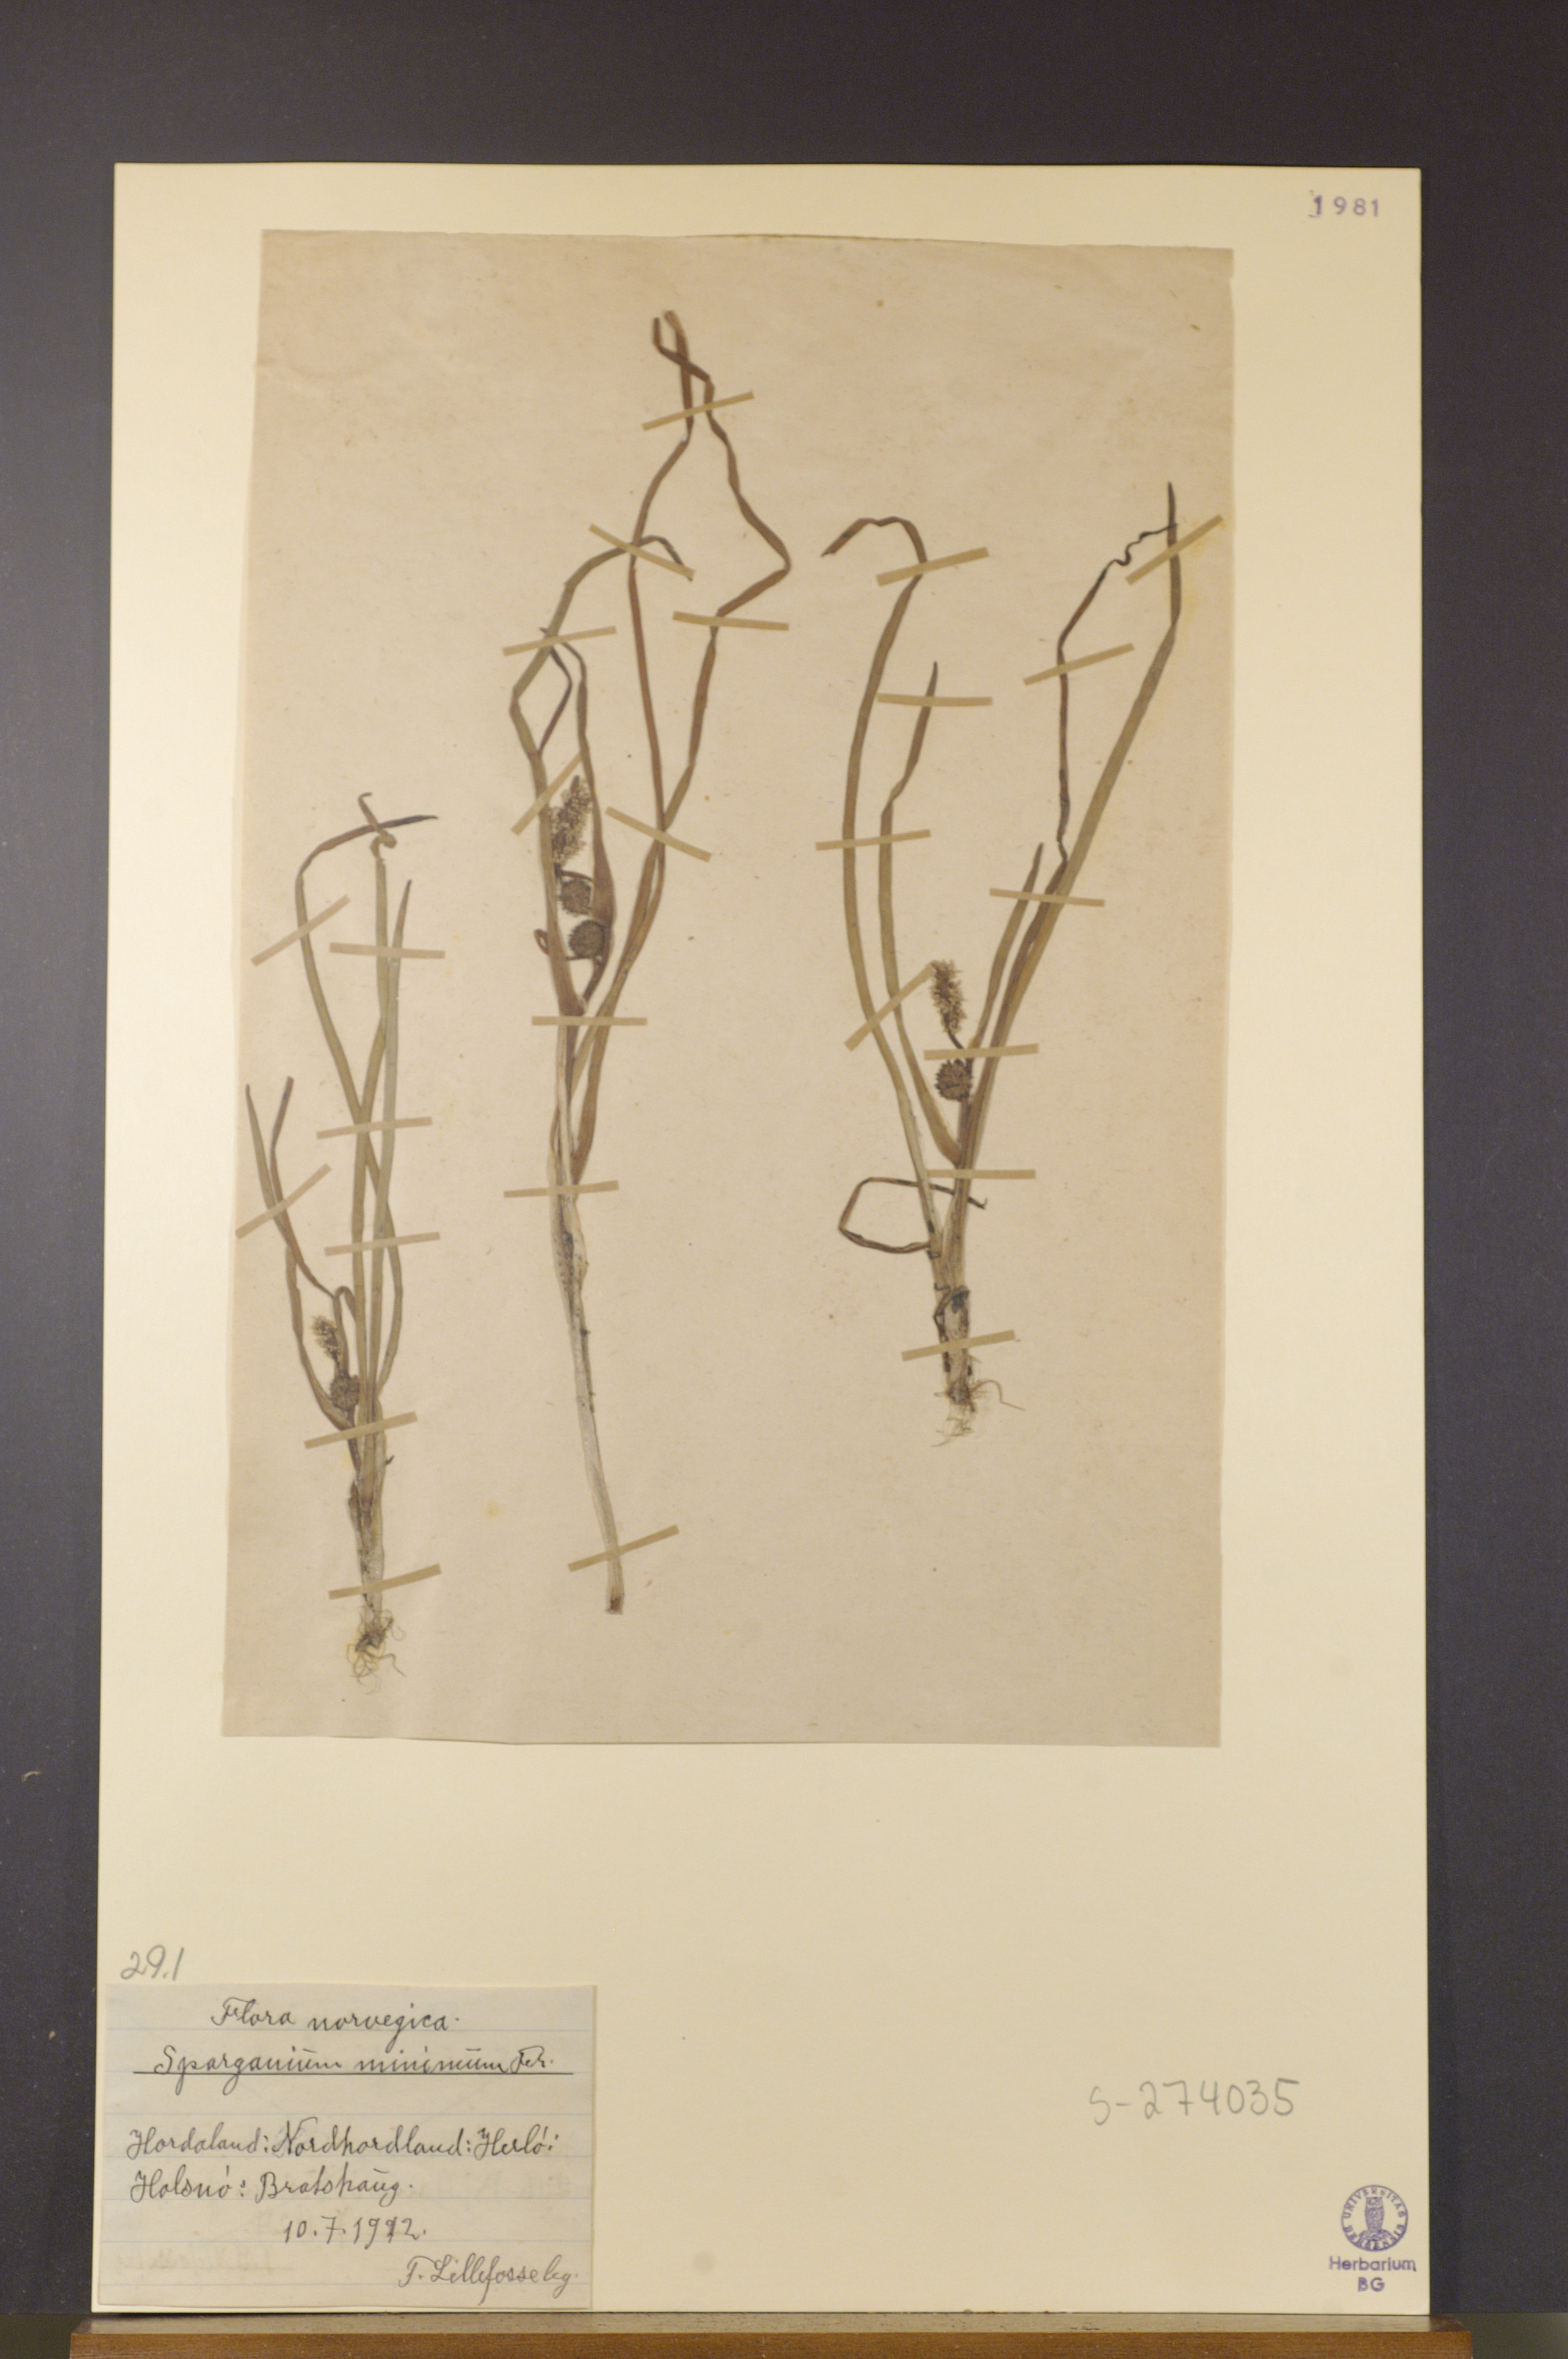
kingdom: Plantae
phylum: Tracheophyta
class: Liliopsida
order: Poales
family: Typhaceae
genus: Sparganium
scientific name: Sparganium natans
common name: Least bur-reed
